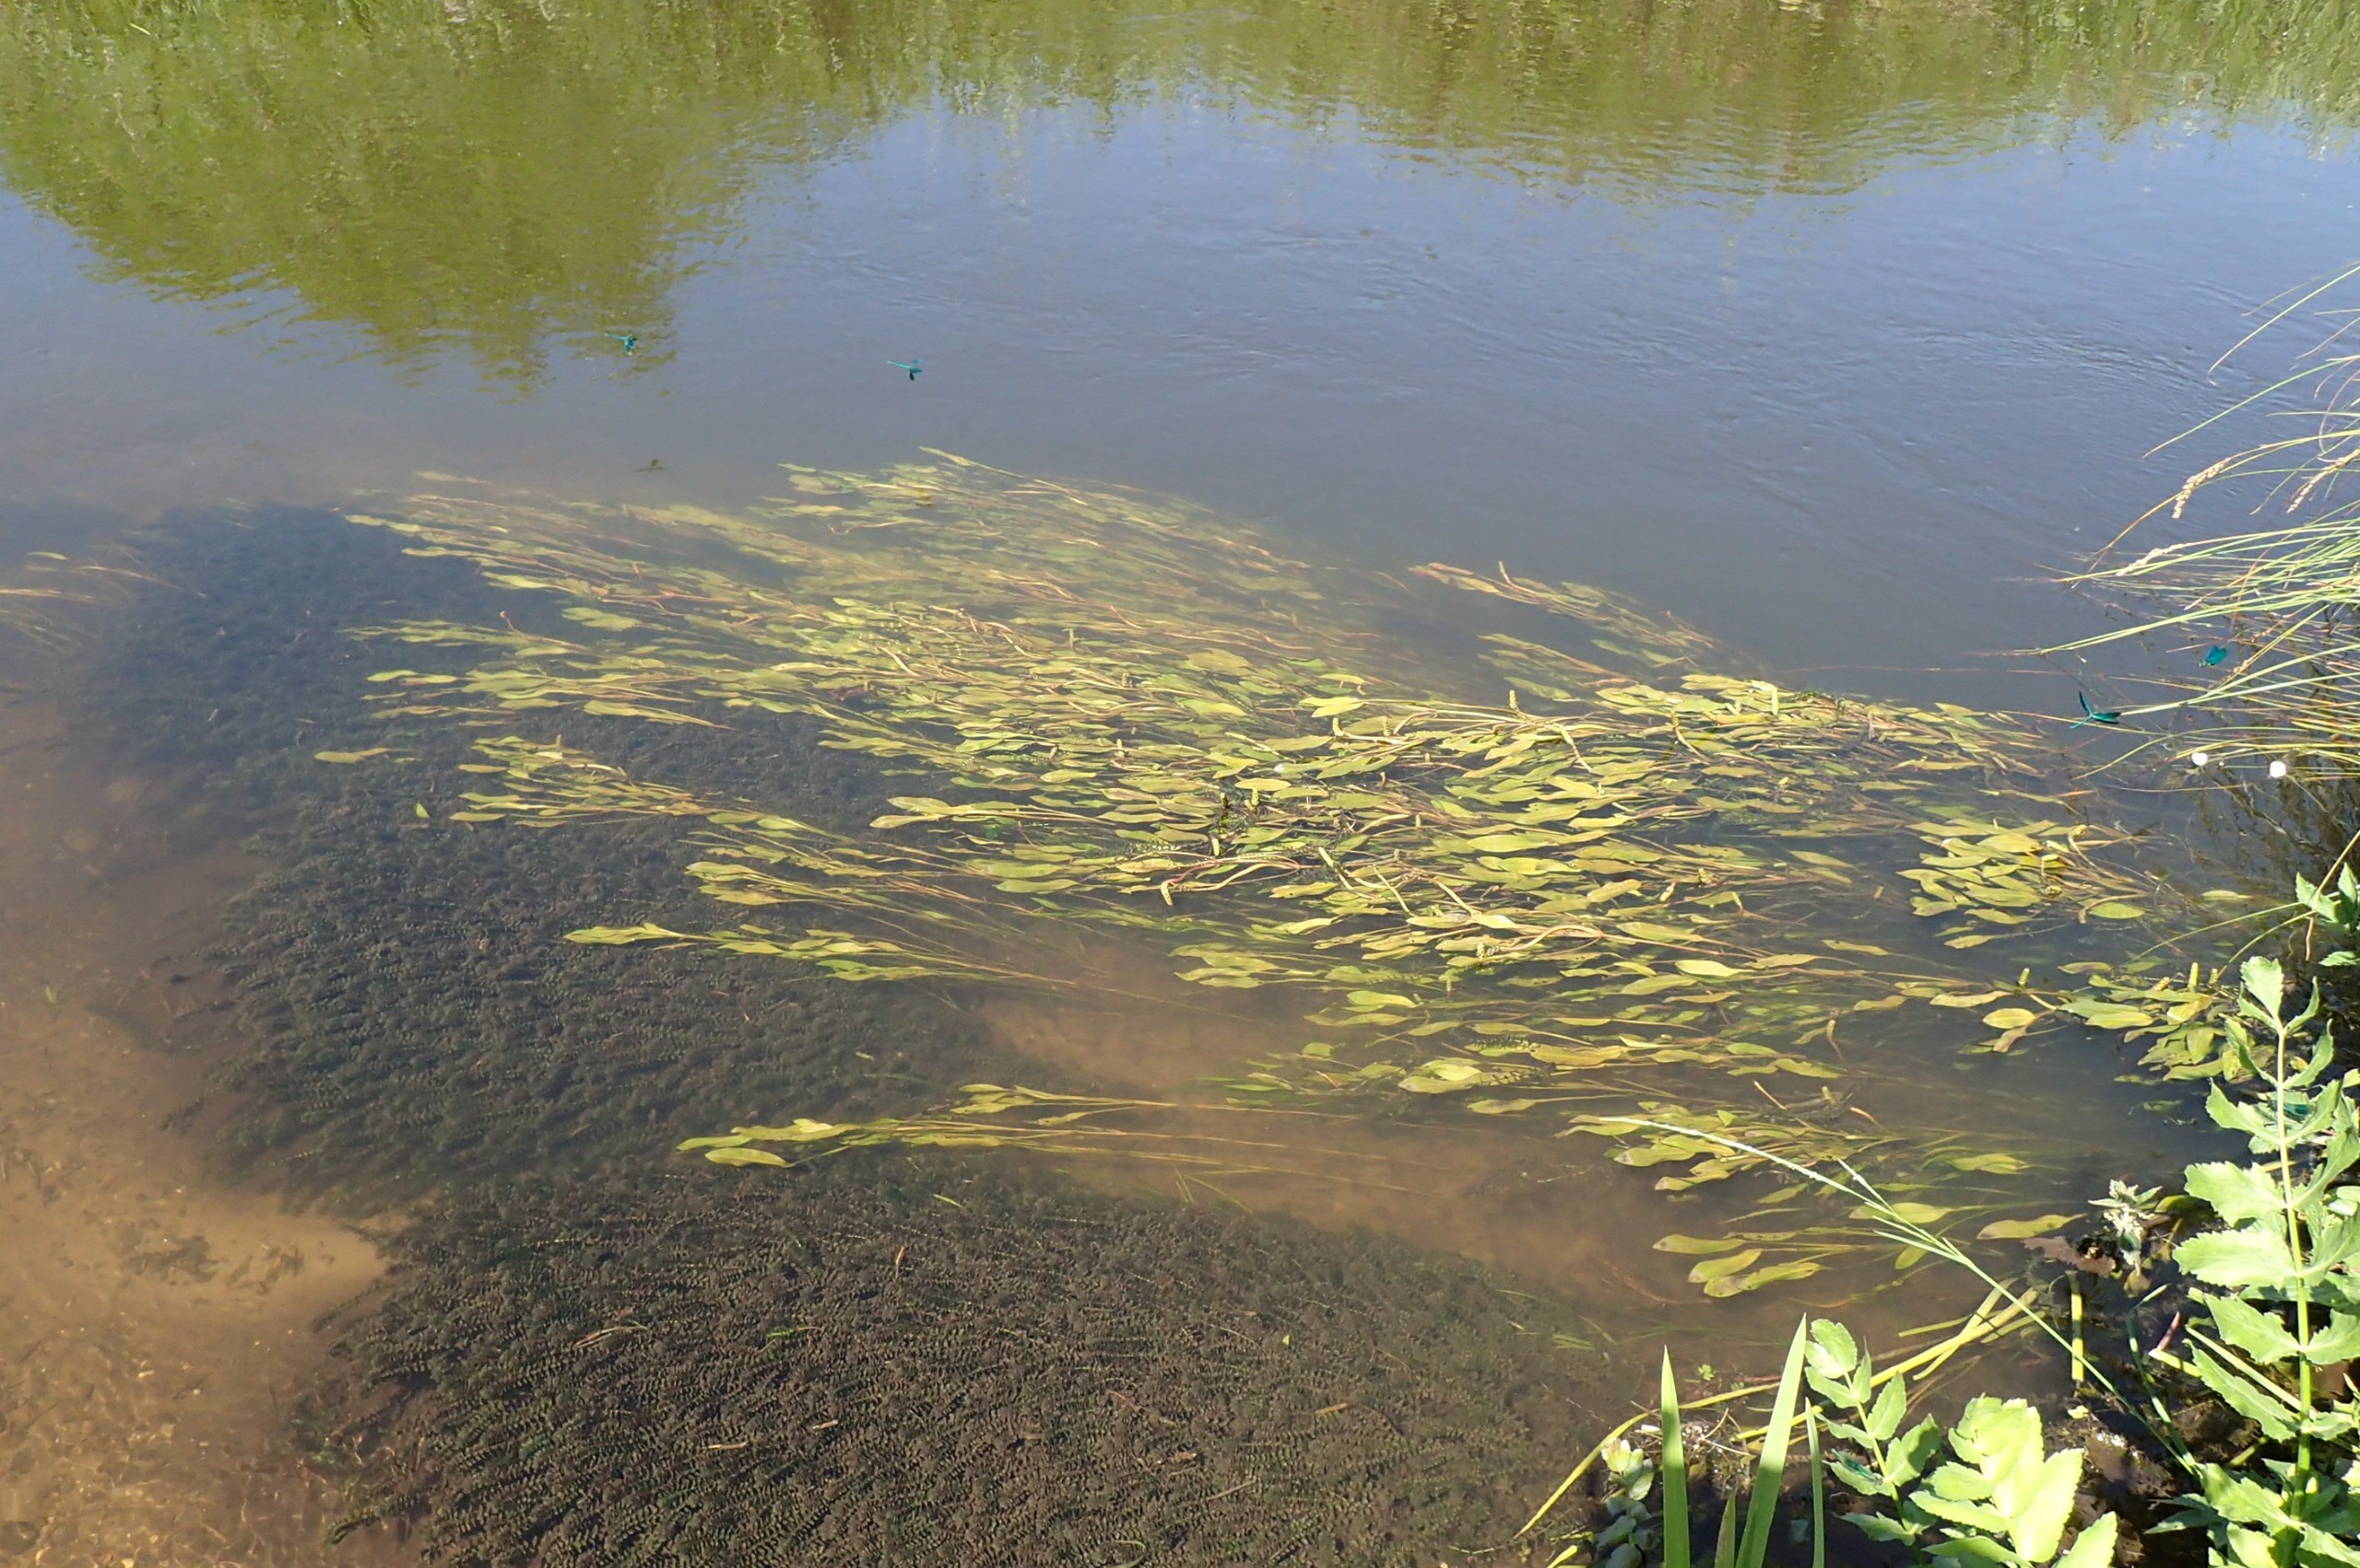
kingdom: Plantae
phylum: Tracheophyta
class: Liliopsida
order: Alismatales
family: Potamogetonaceae
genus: Potamogeton
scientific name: Potamogeton natans
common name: Svømmende vandaks
